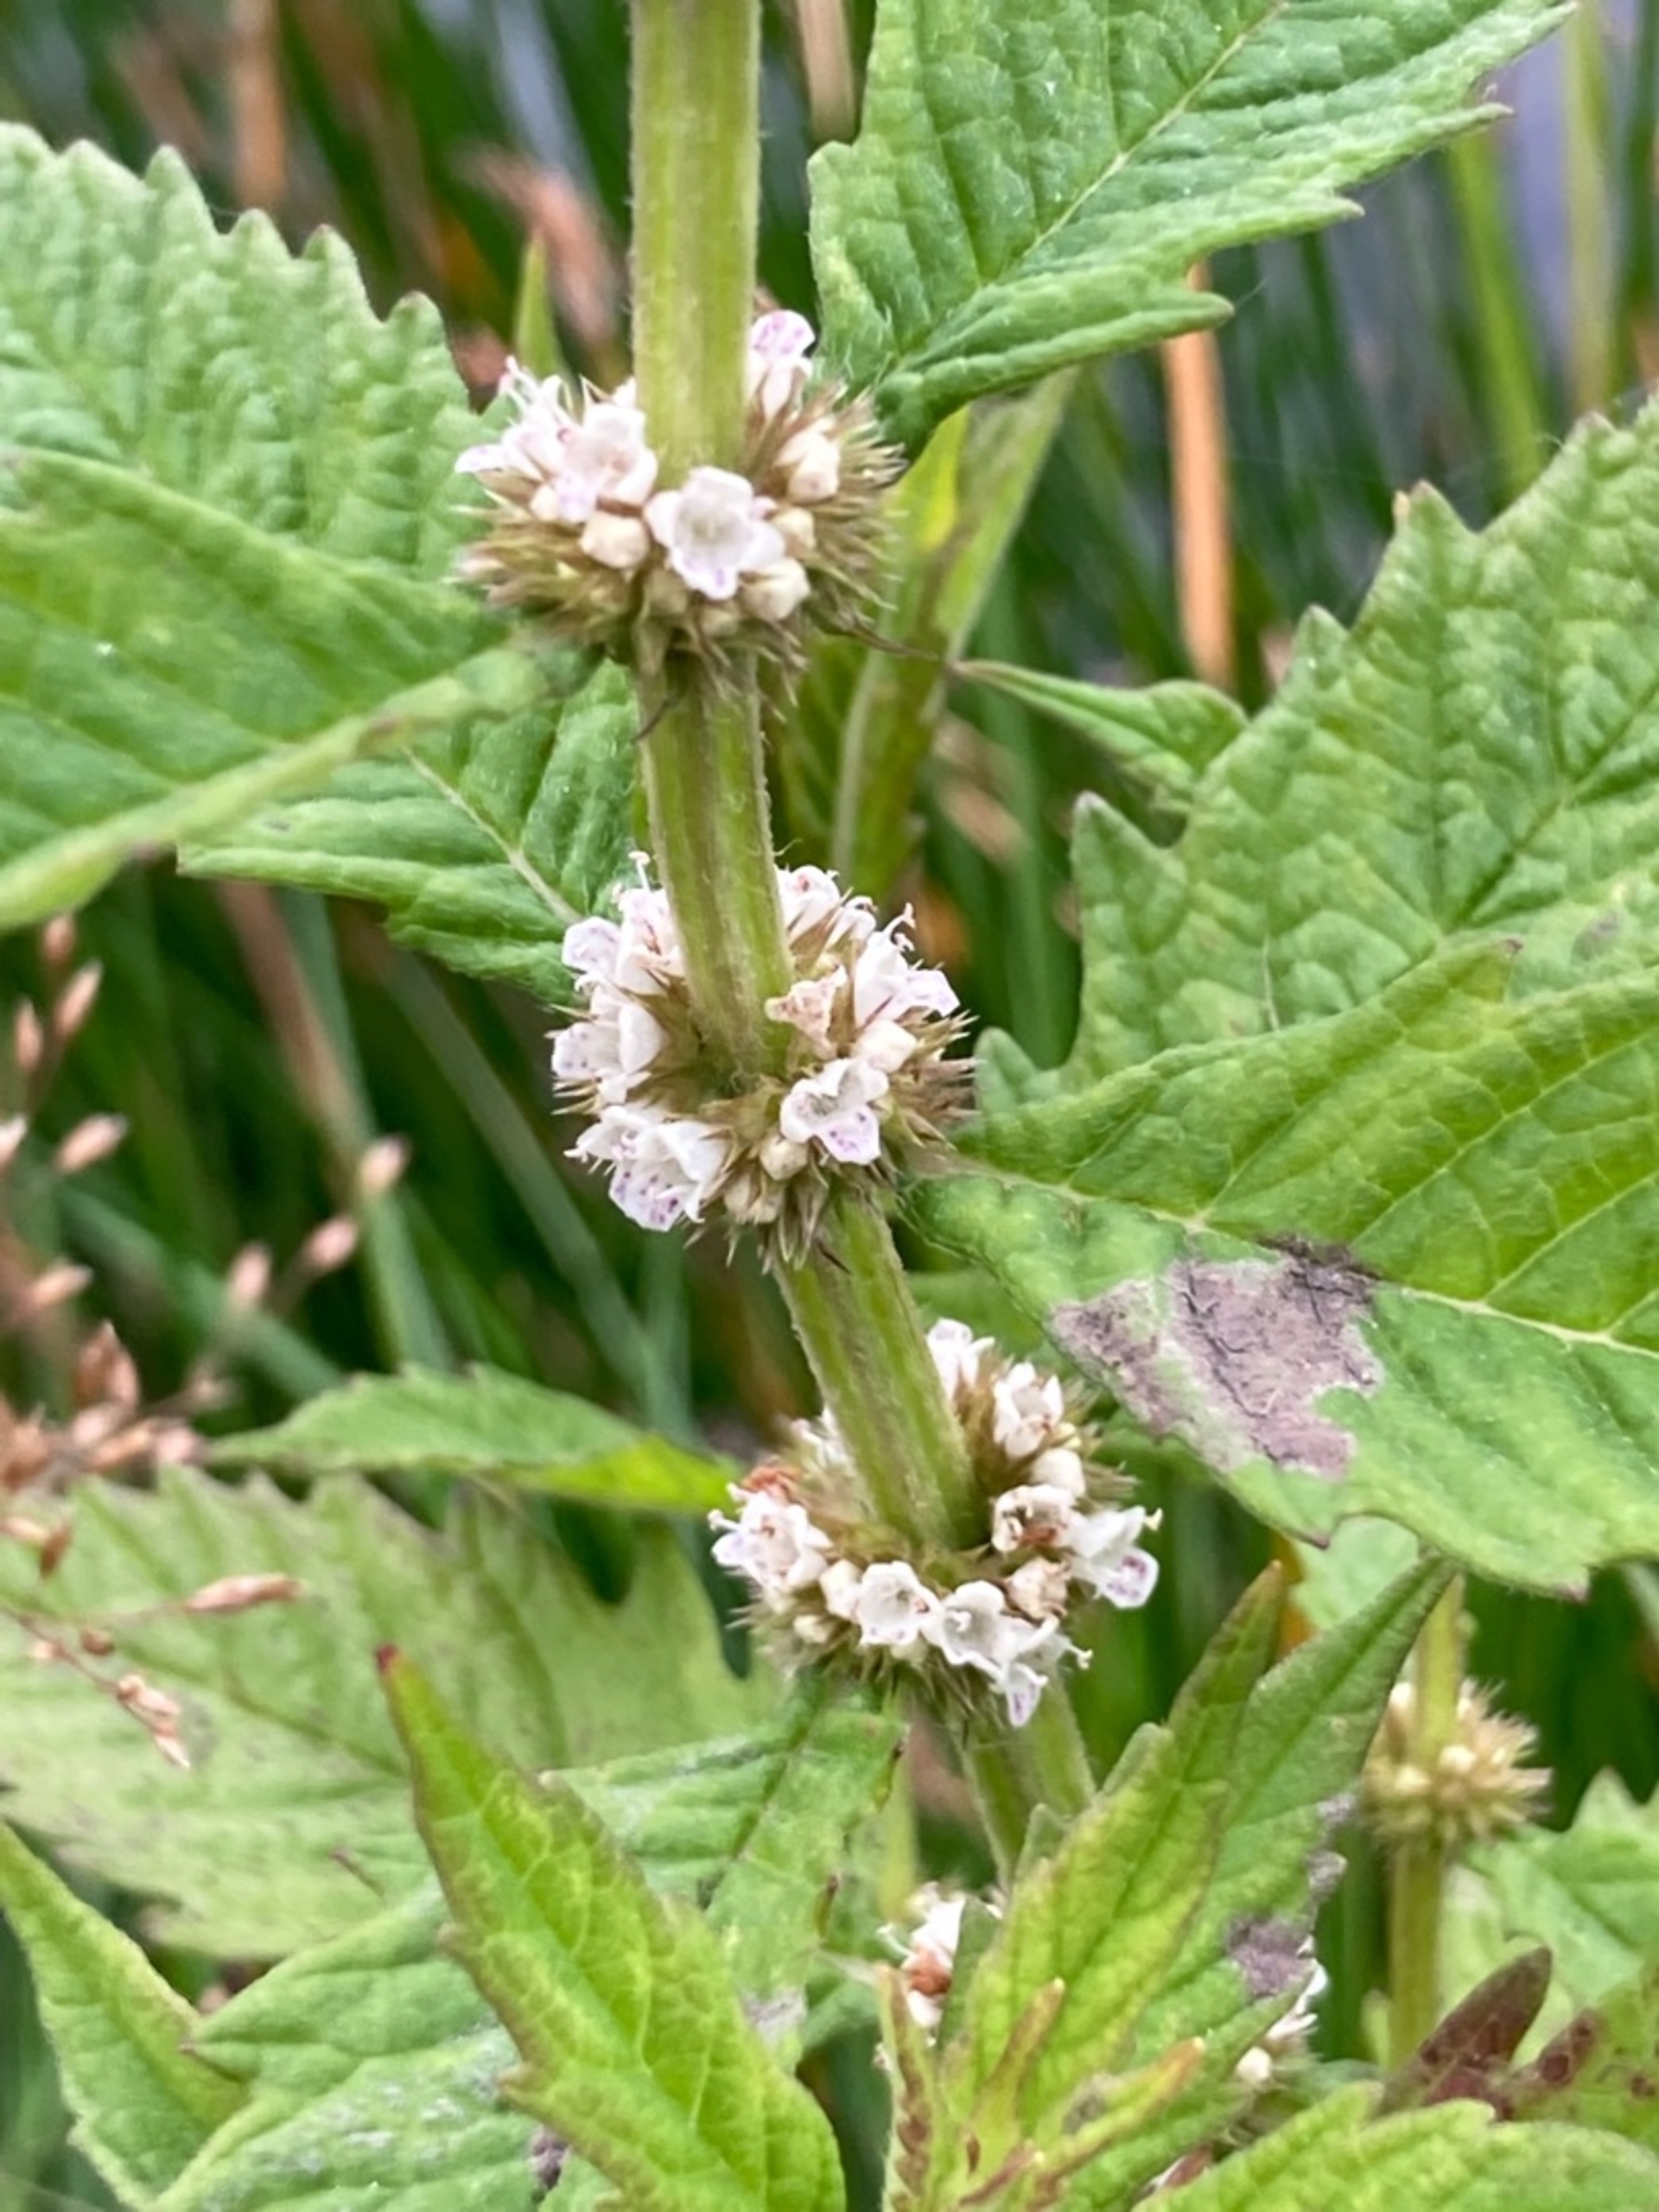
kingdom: Plantae
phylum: Tracheophyta
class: Magnoliopsida
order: Lamiales
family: Lamiaceae
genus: Lycopus
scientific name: Lycopus europaeus
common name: Sværtevæld
